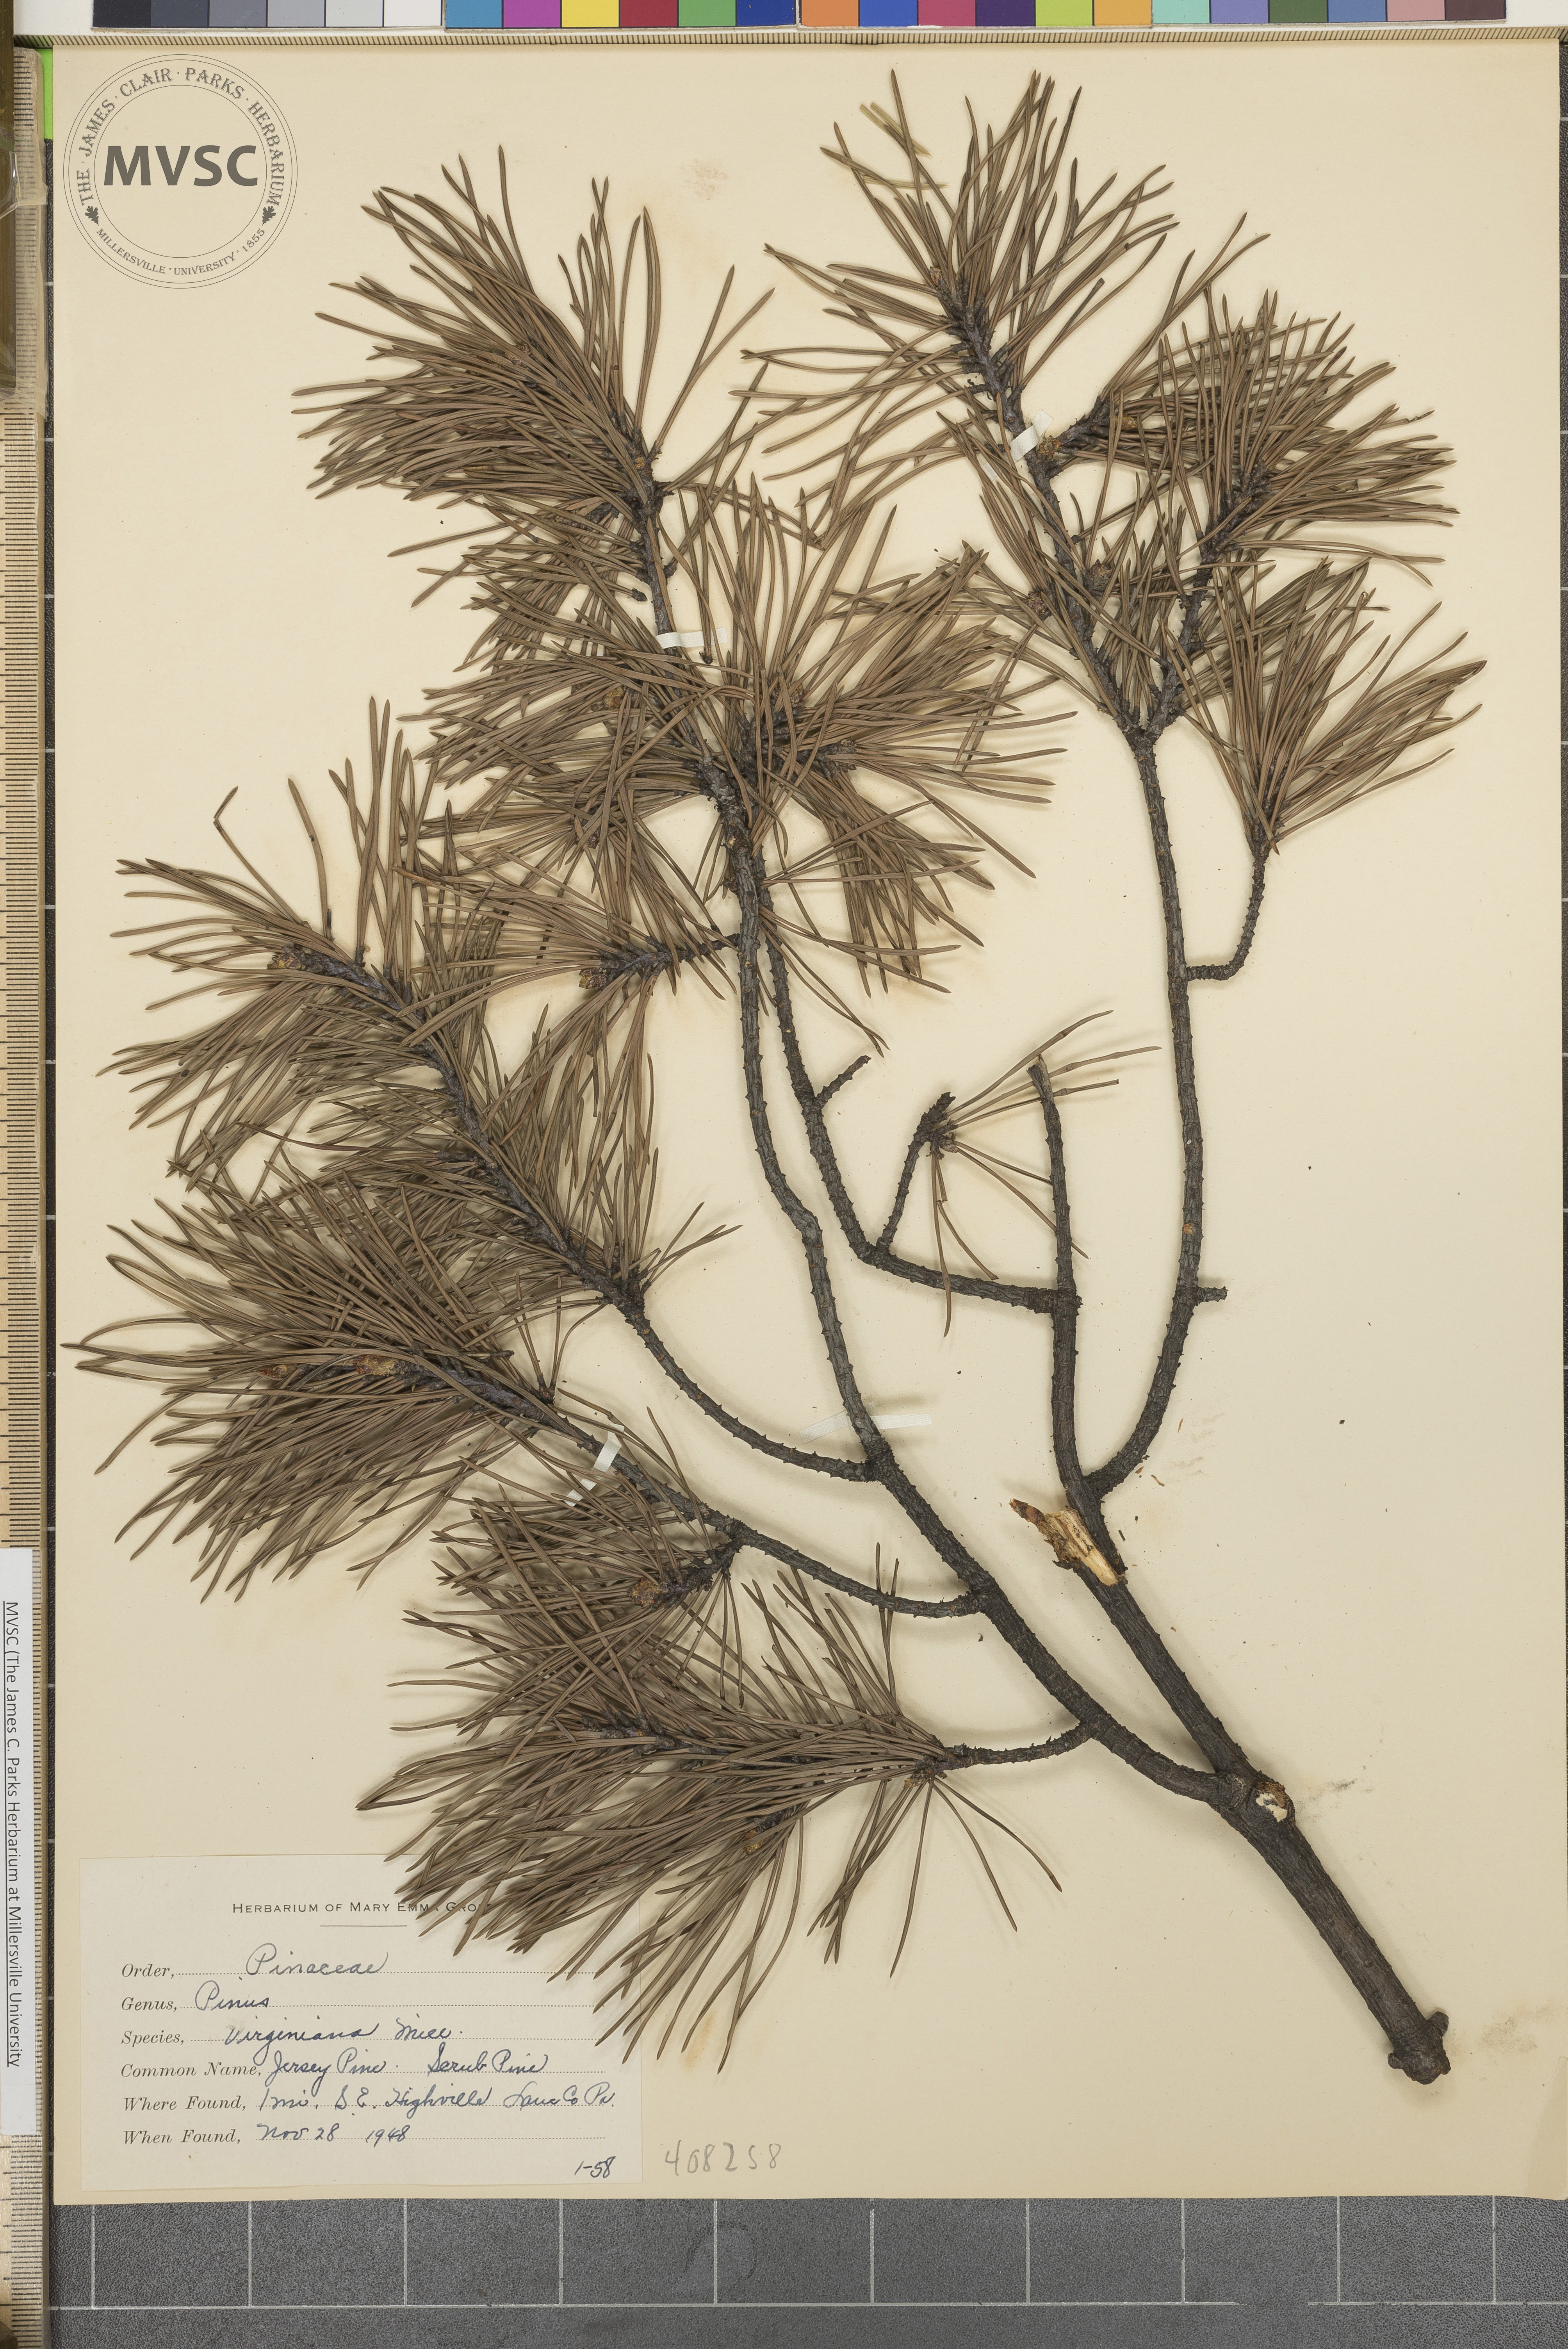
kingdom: Plantae
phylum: Tracheophyta
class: Pinopsida
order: Pinales
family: Pinaceae
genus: Pinus
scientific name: Pinus virginiana
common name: Scrub pine
